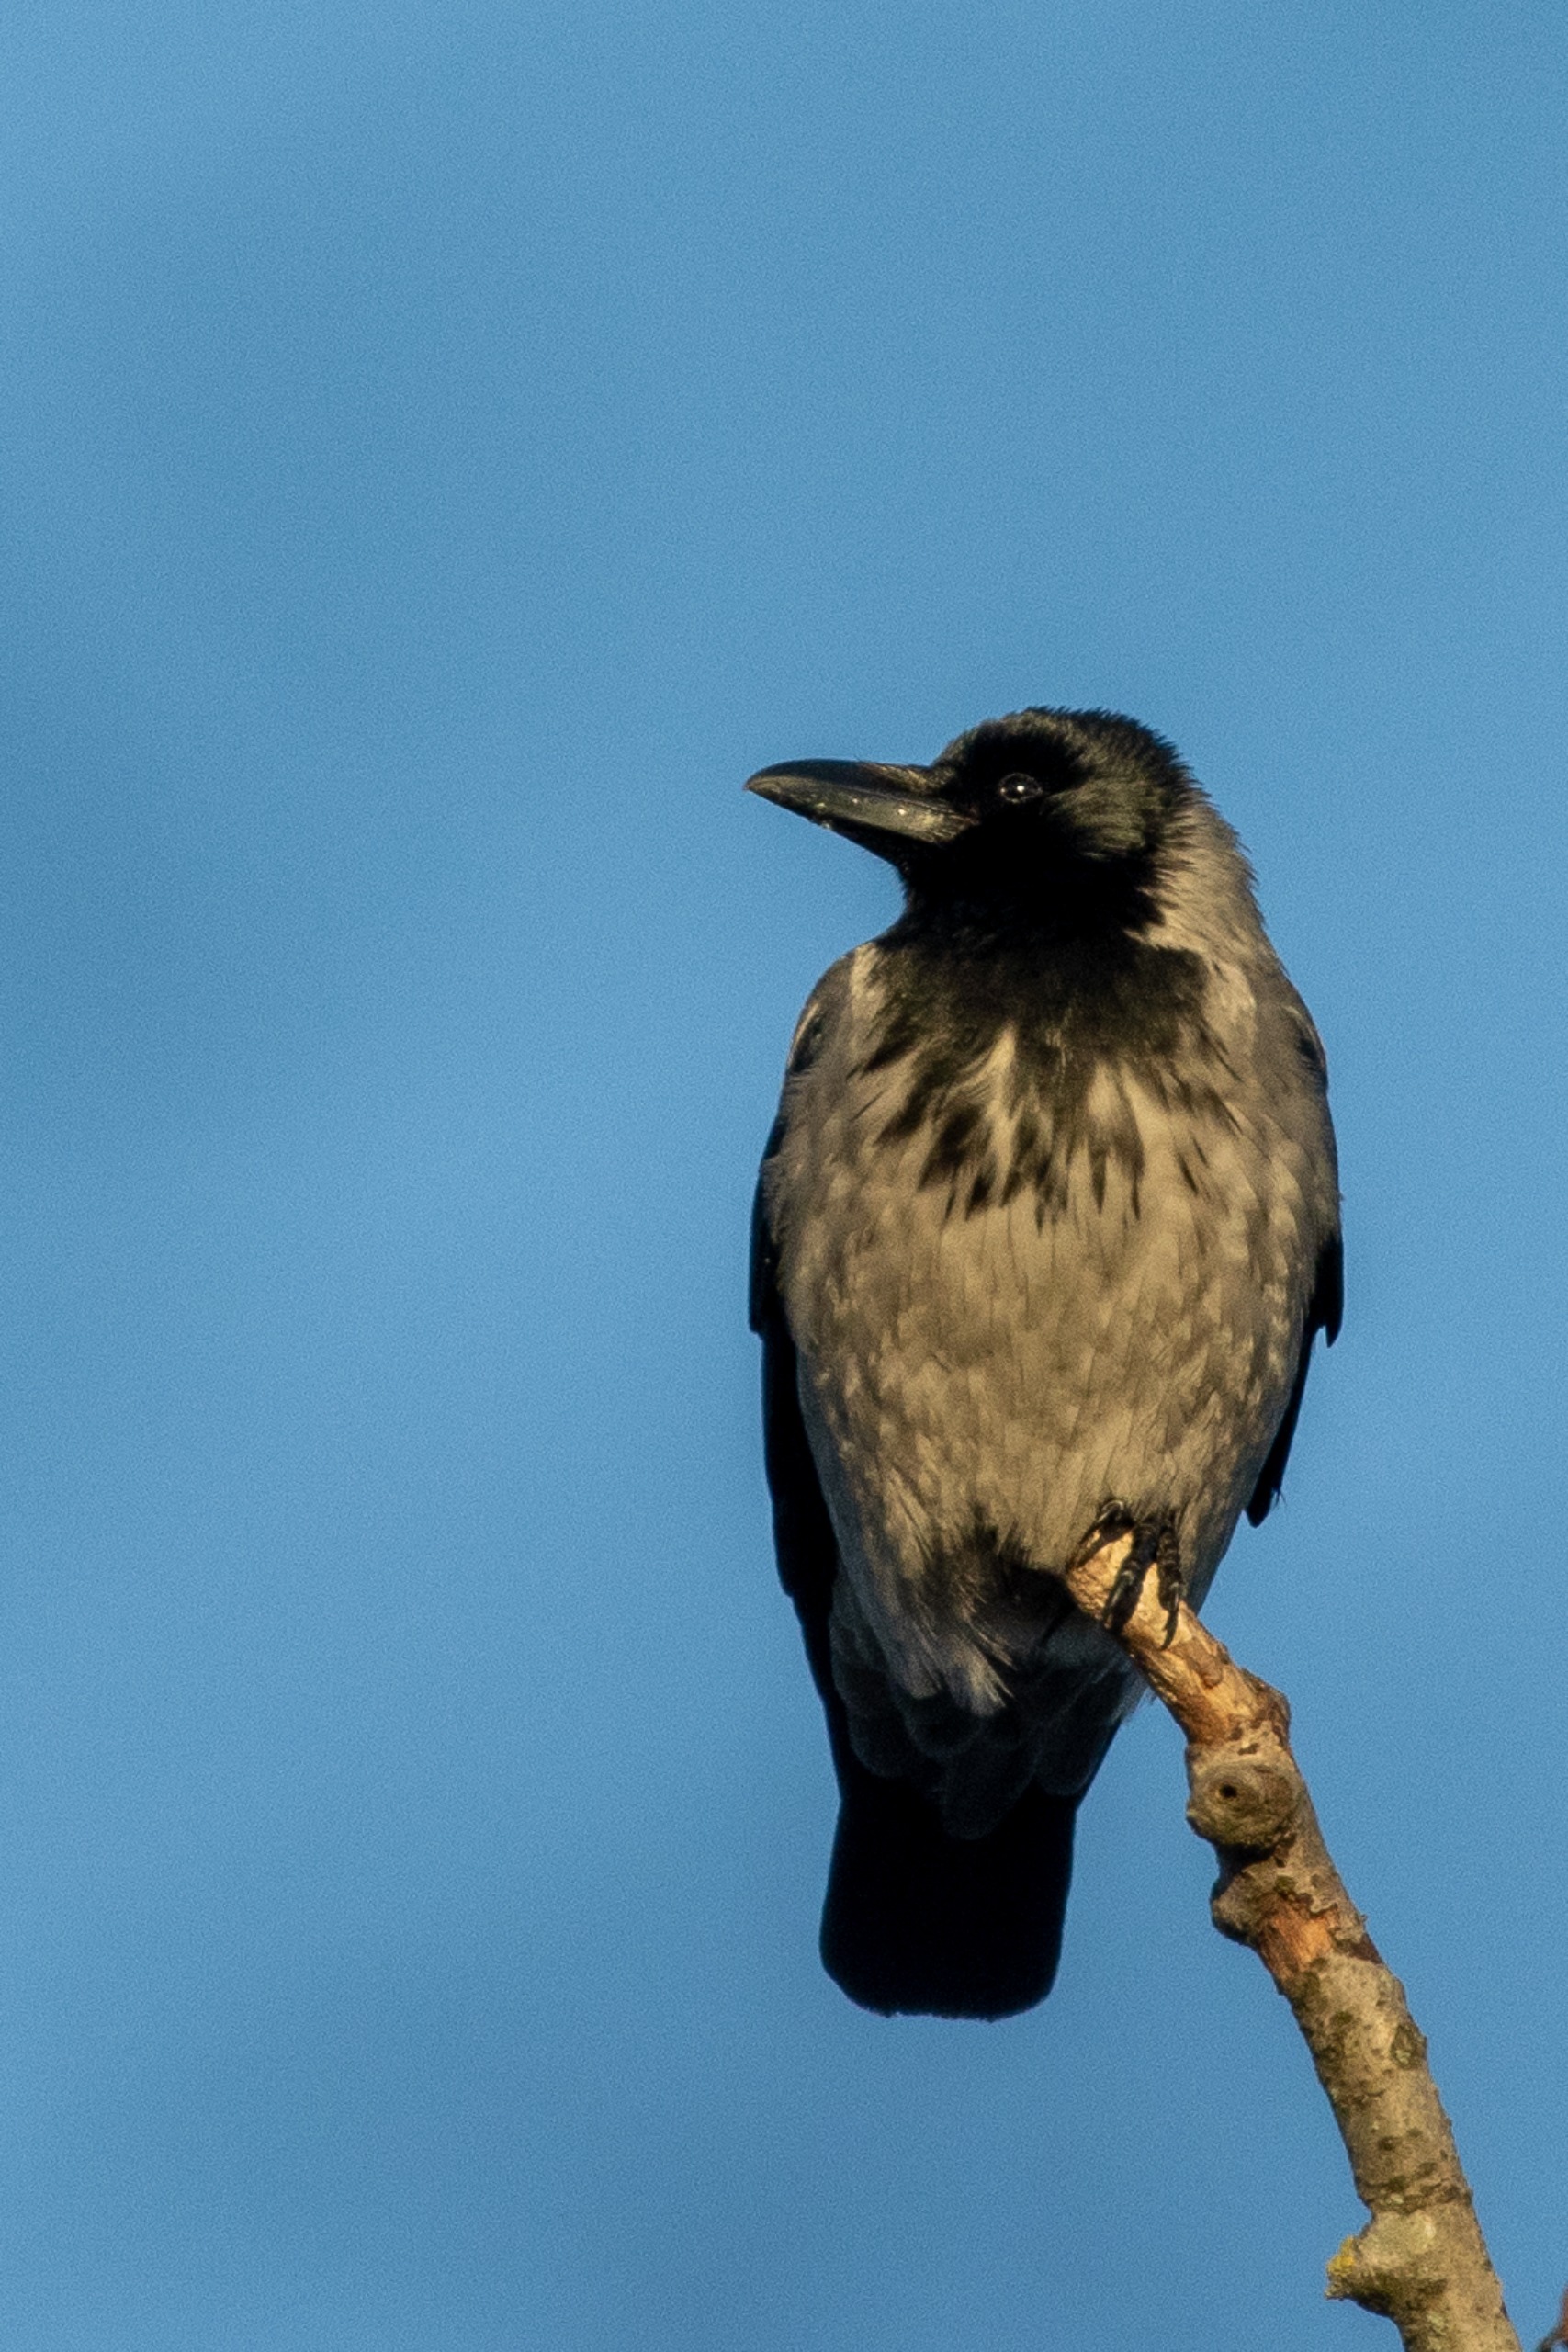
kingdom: Animalia
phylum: Chordata
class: Aves
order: Passeriformes
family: Corvidae
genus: Corvus
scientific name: Corvus cornix
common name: Gråkrage
